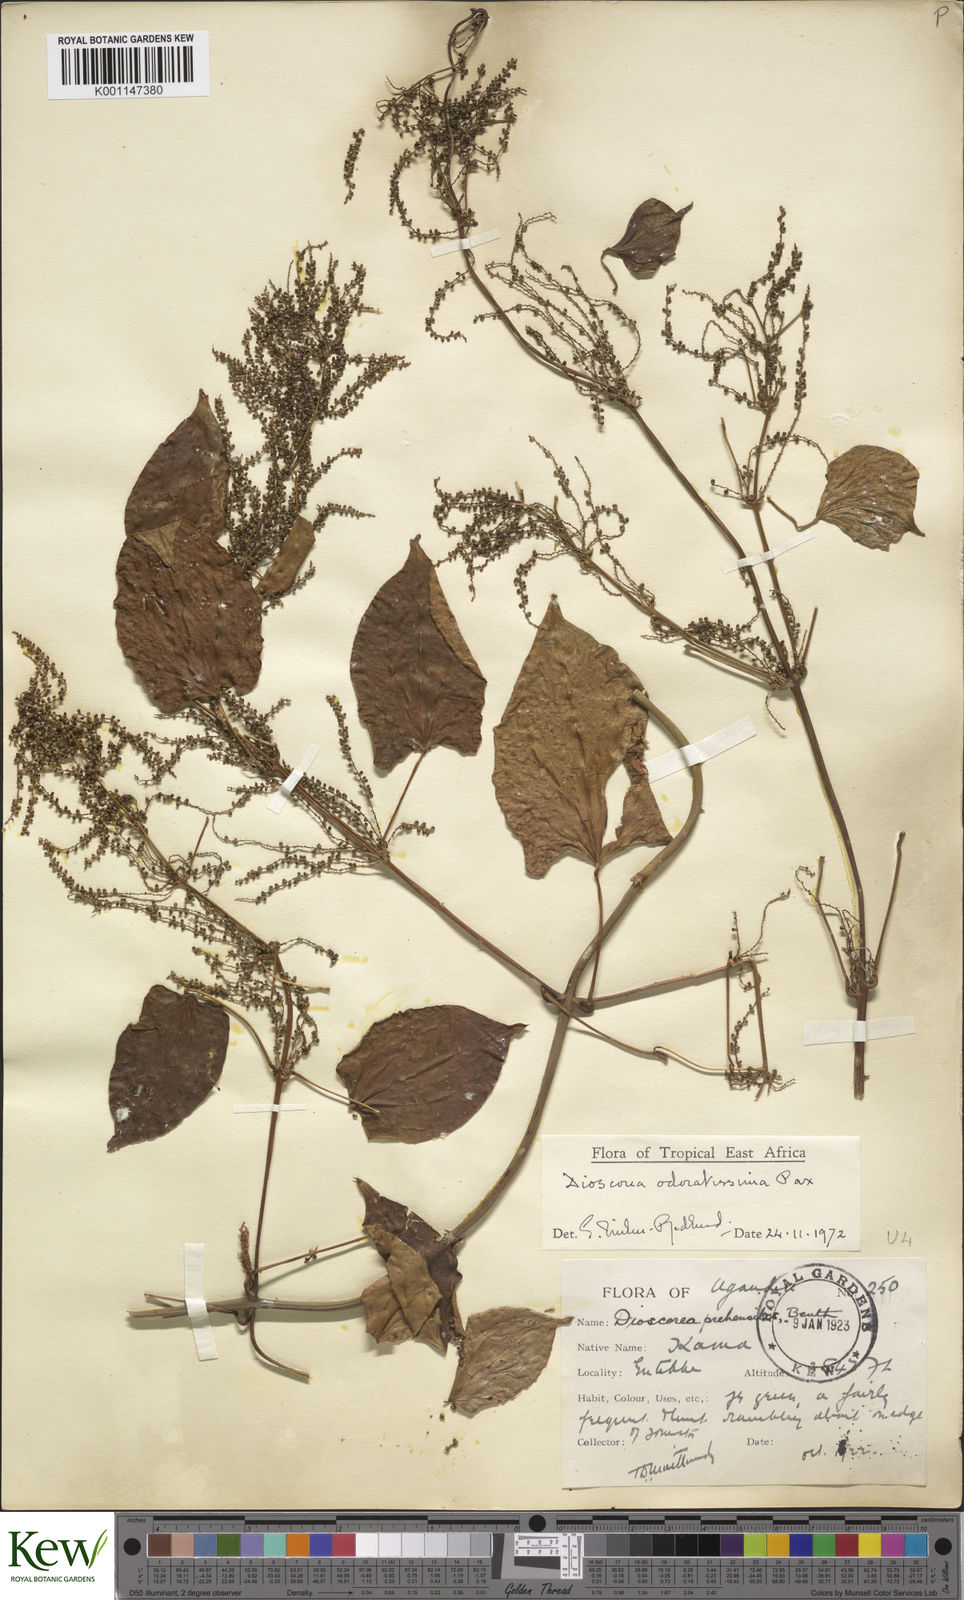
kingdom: Plantae
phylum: Tracheophyta
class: Liliopsida
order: Dioscoreales
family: Dioscoreaceae
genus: Dioscorea
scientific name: Dioscorea praehensilis
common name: Bush yam
